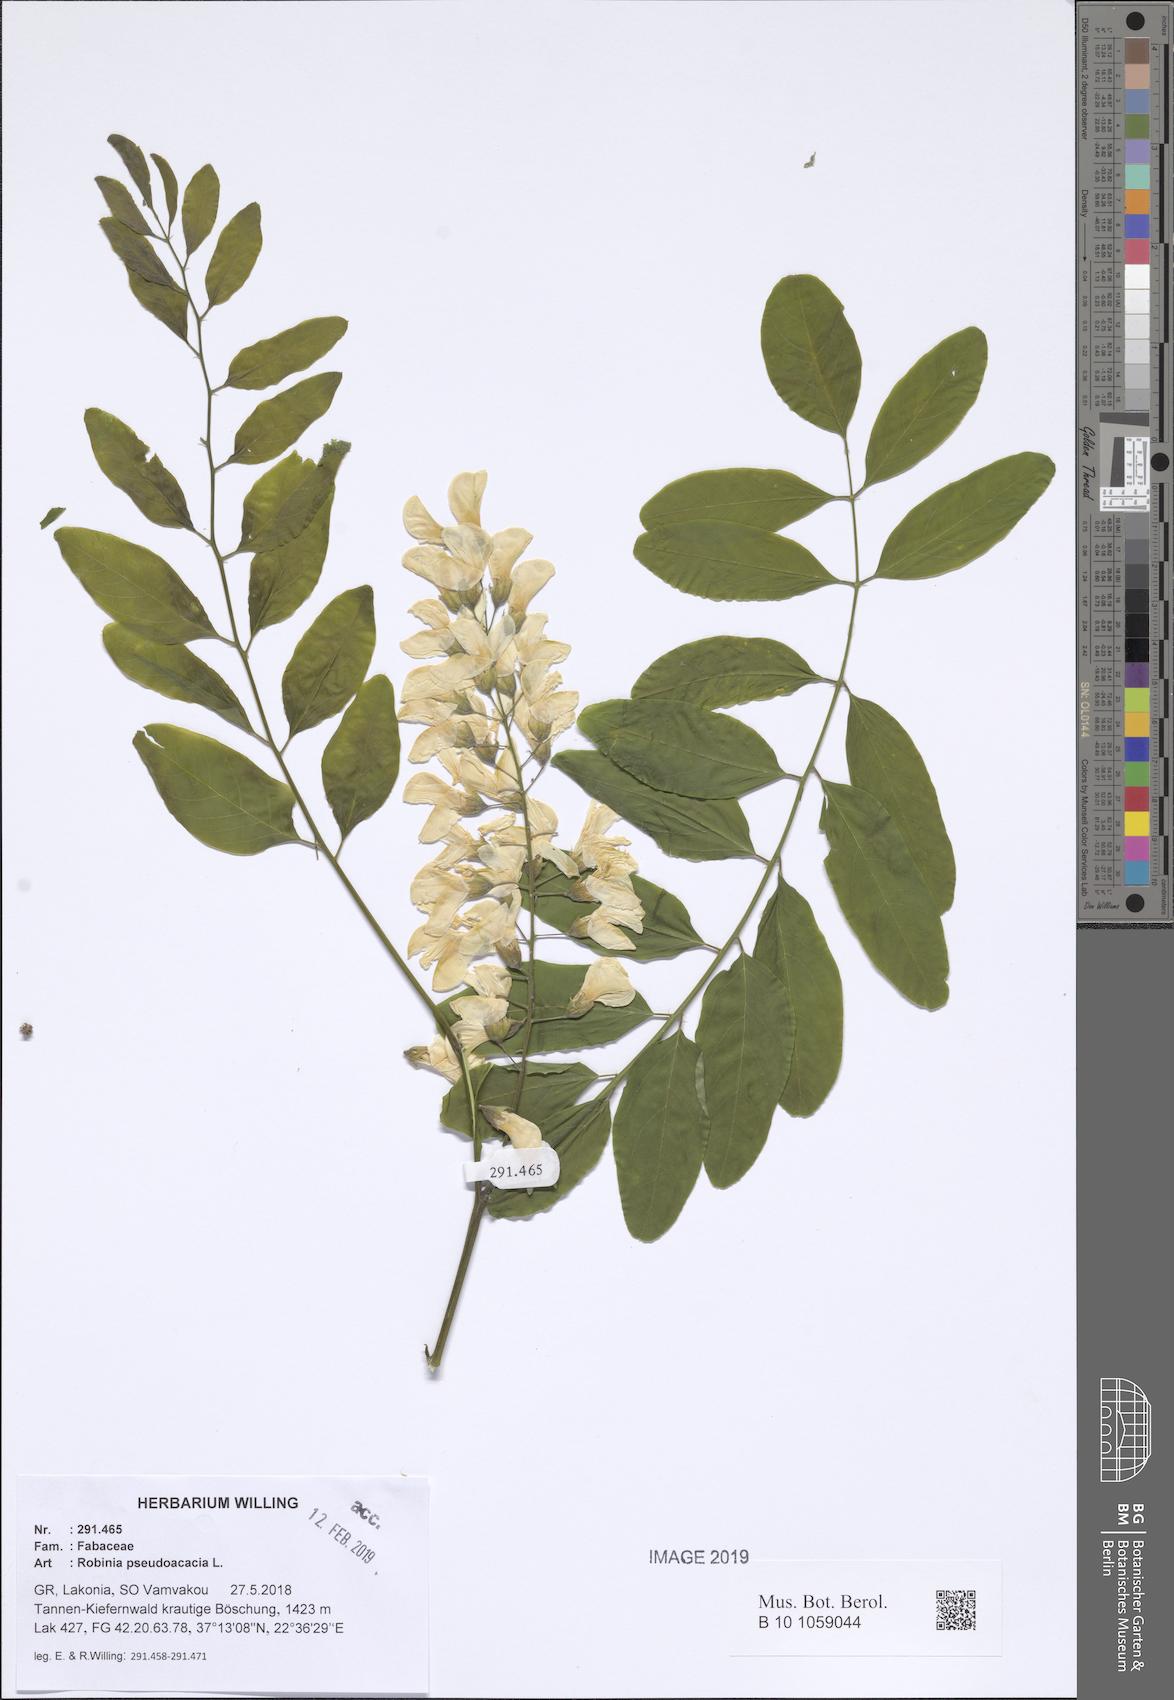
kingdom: Plantae
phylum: Tracheophyta
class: Magnoliopsida
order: Fabales
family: Fabaceae
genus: Robinia
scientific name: Robinia pseudoacacia
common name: Black locust
